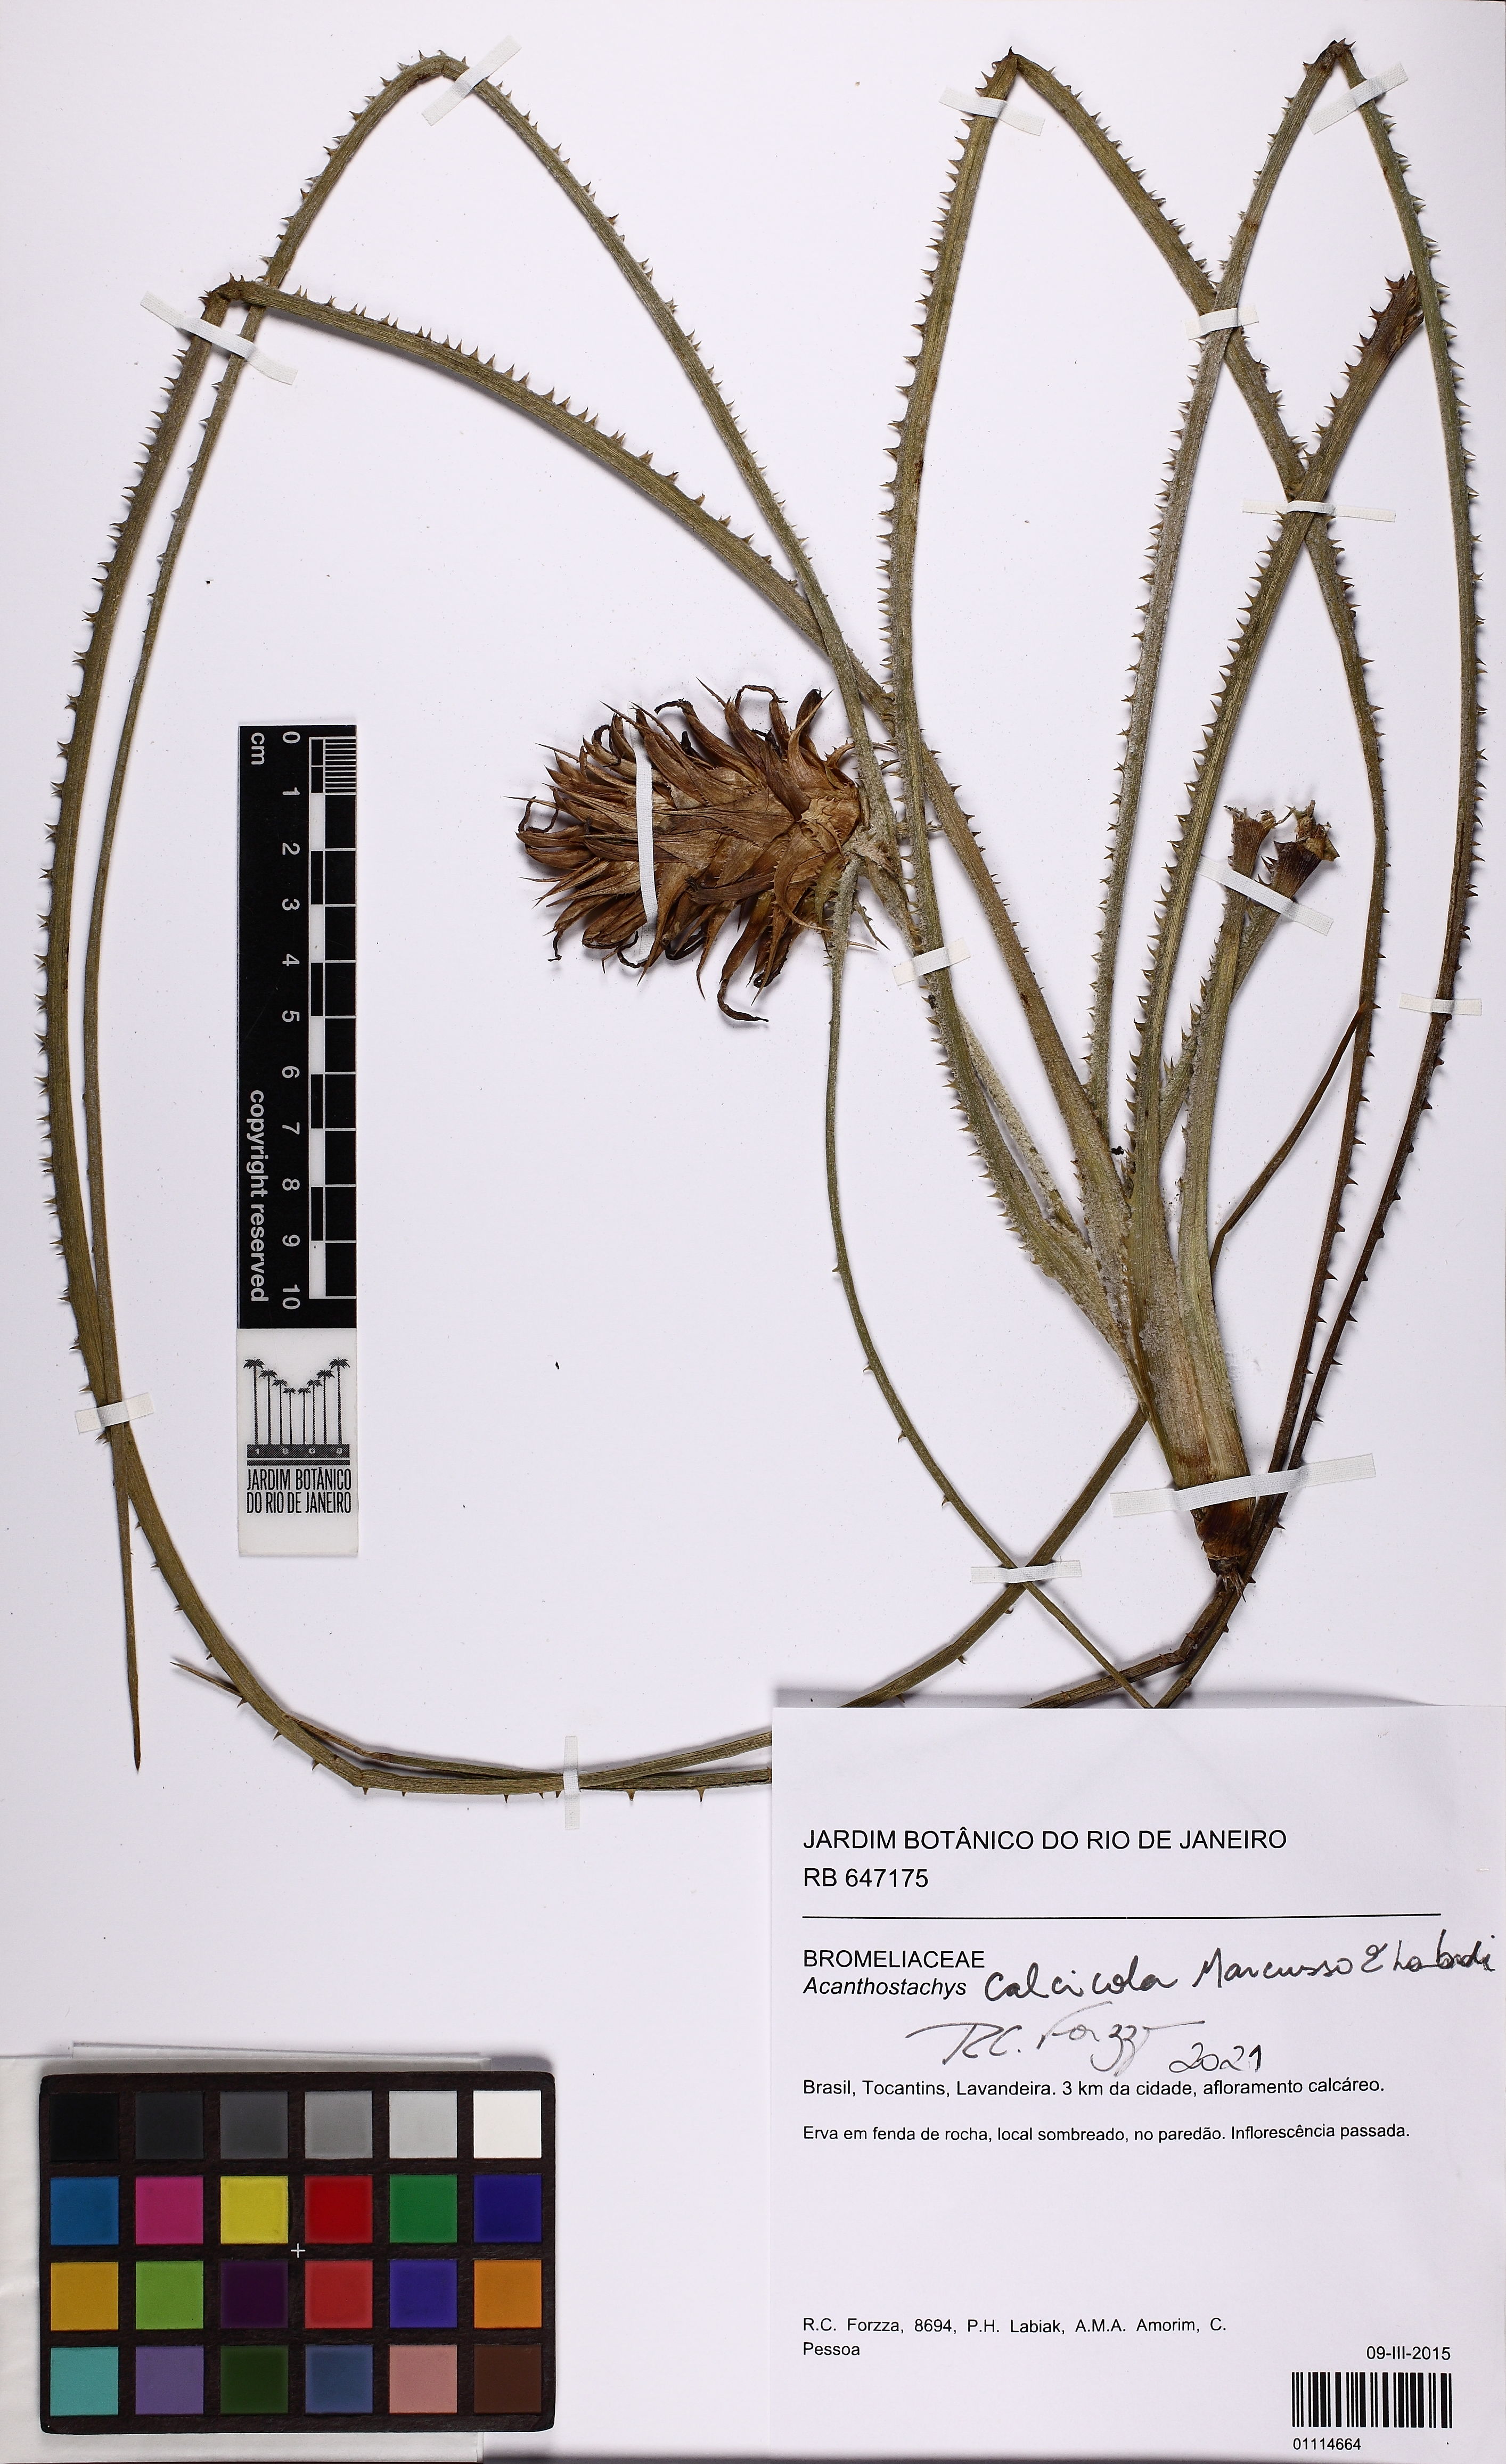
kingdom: Plantae
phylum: Tracheophyta
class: Liliopsida
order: Poales
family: Bromeliaceae
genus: Acanthostachys
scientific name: Acanthostachys calcicola
